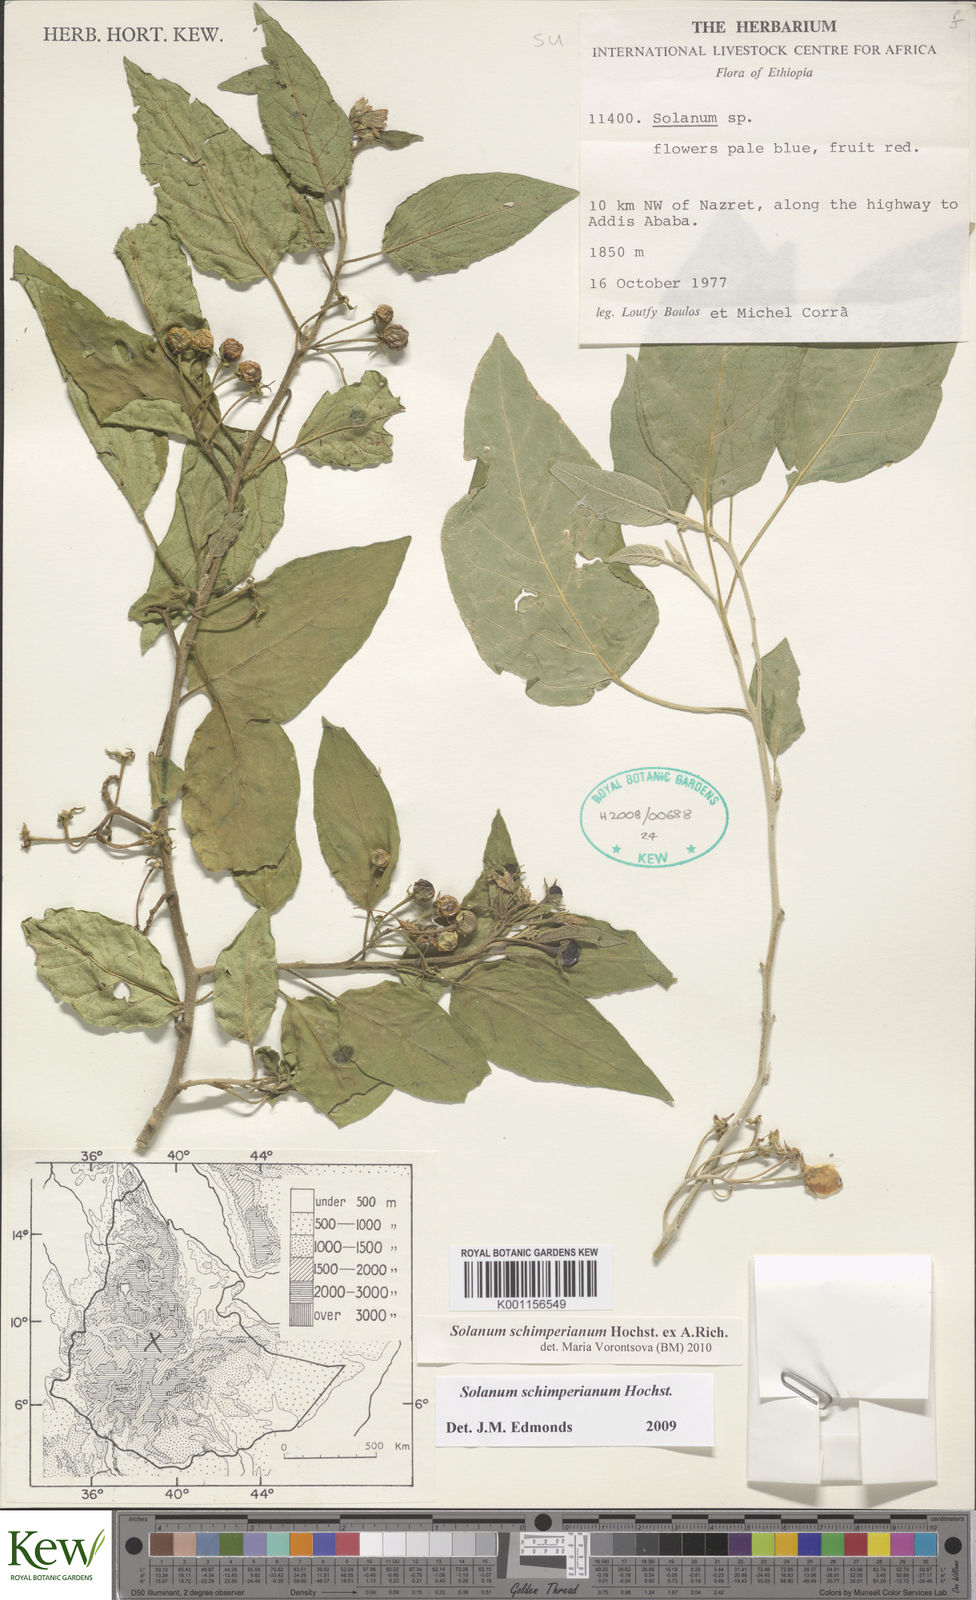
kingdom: Plantae
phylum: Tracheophyta
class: Magnoliopsida
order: Solanales
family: Solanaceae
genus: Solanum
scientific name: Solanum
